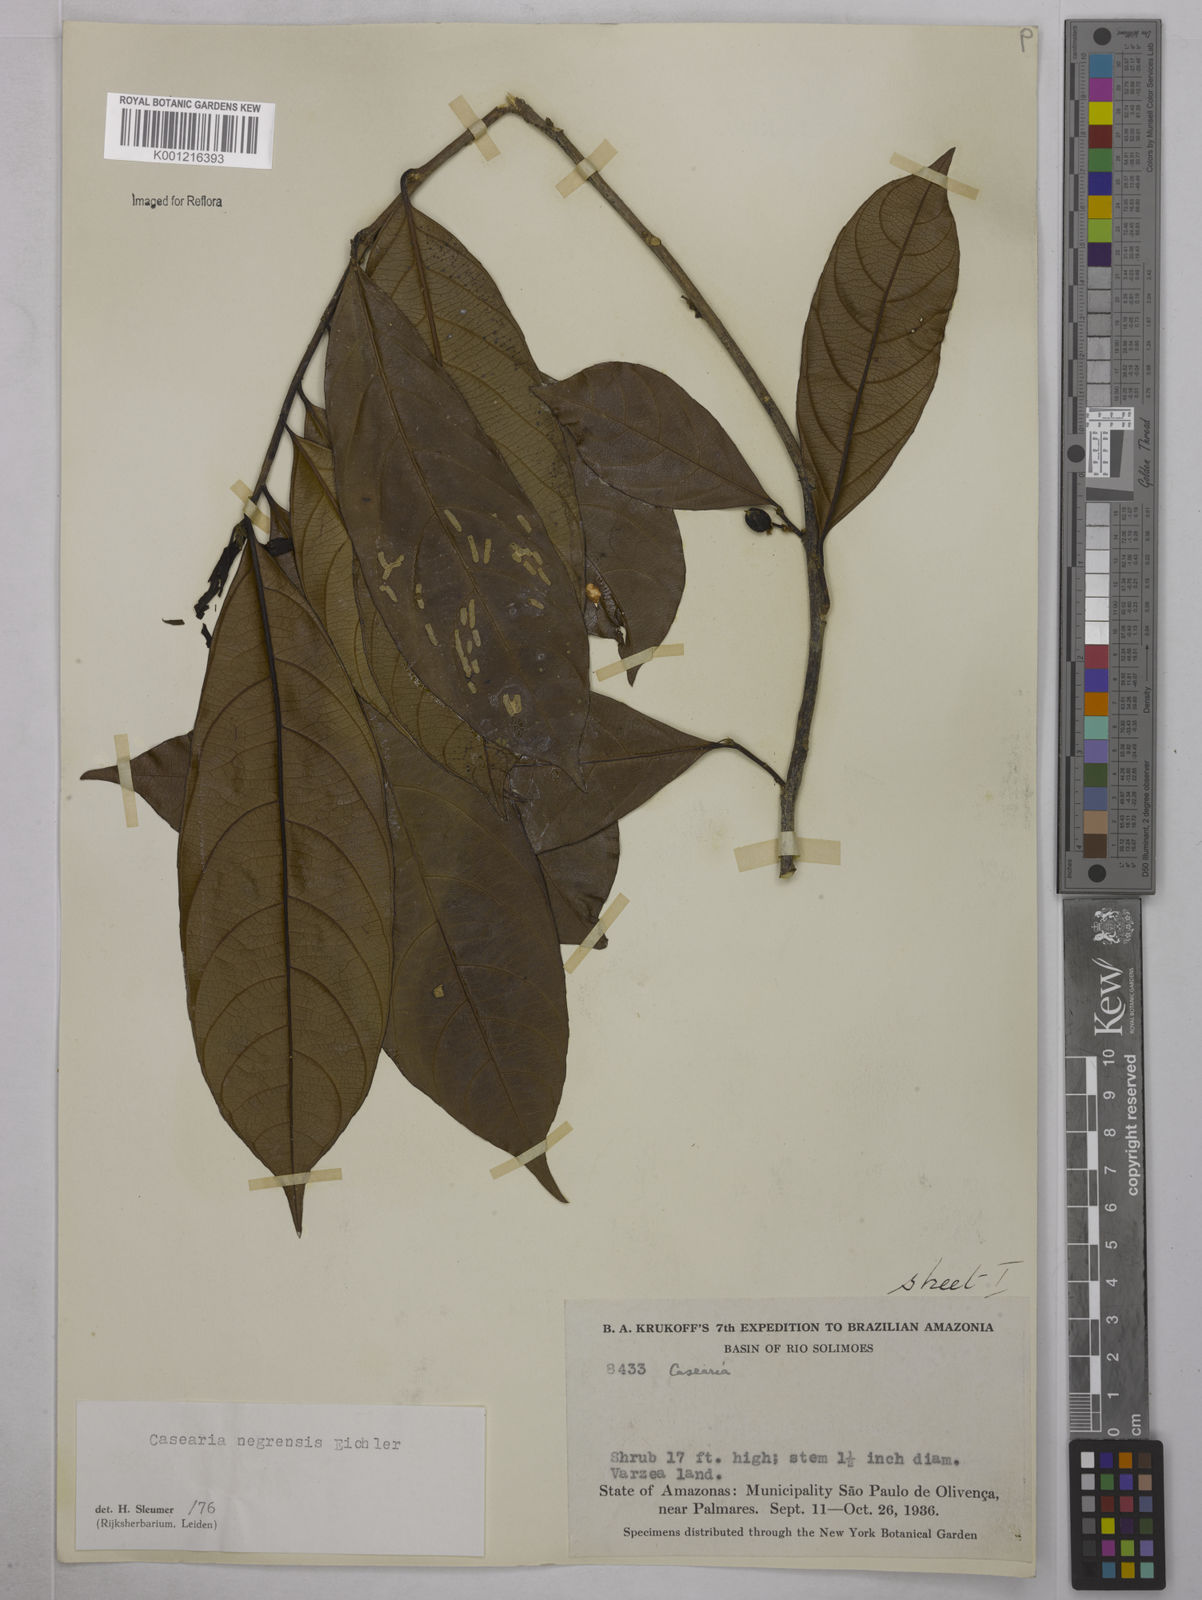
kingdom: Plantae
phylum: Tracheophyta
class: Magnoliopsida
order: Malpighiales
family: Salicaceae
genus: Casearia
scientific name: Casearia negrensis
